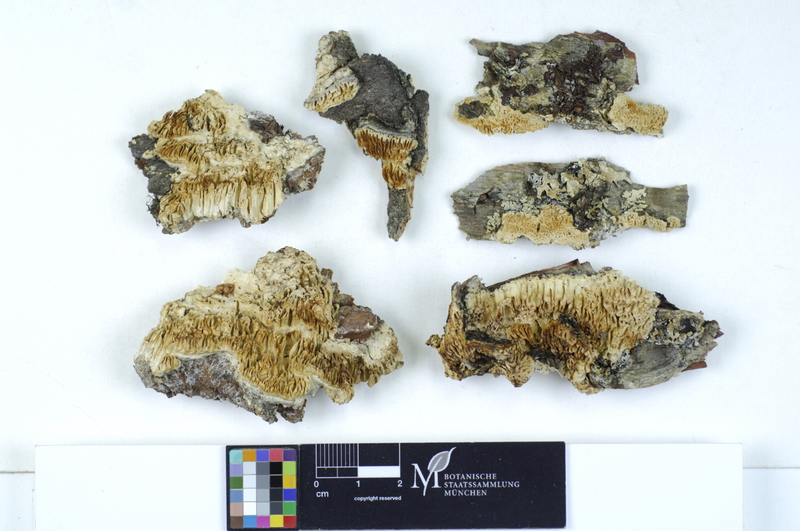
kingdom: Plantae
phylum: Tracheophyta
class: Magnoliopsida
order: Fagales
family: Betulaceae
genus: Betula
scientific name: Betula
